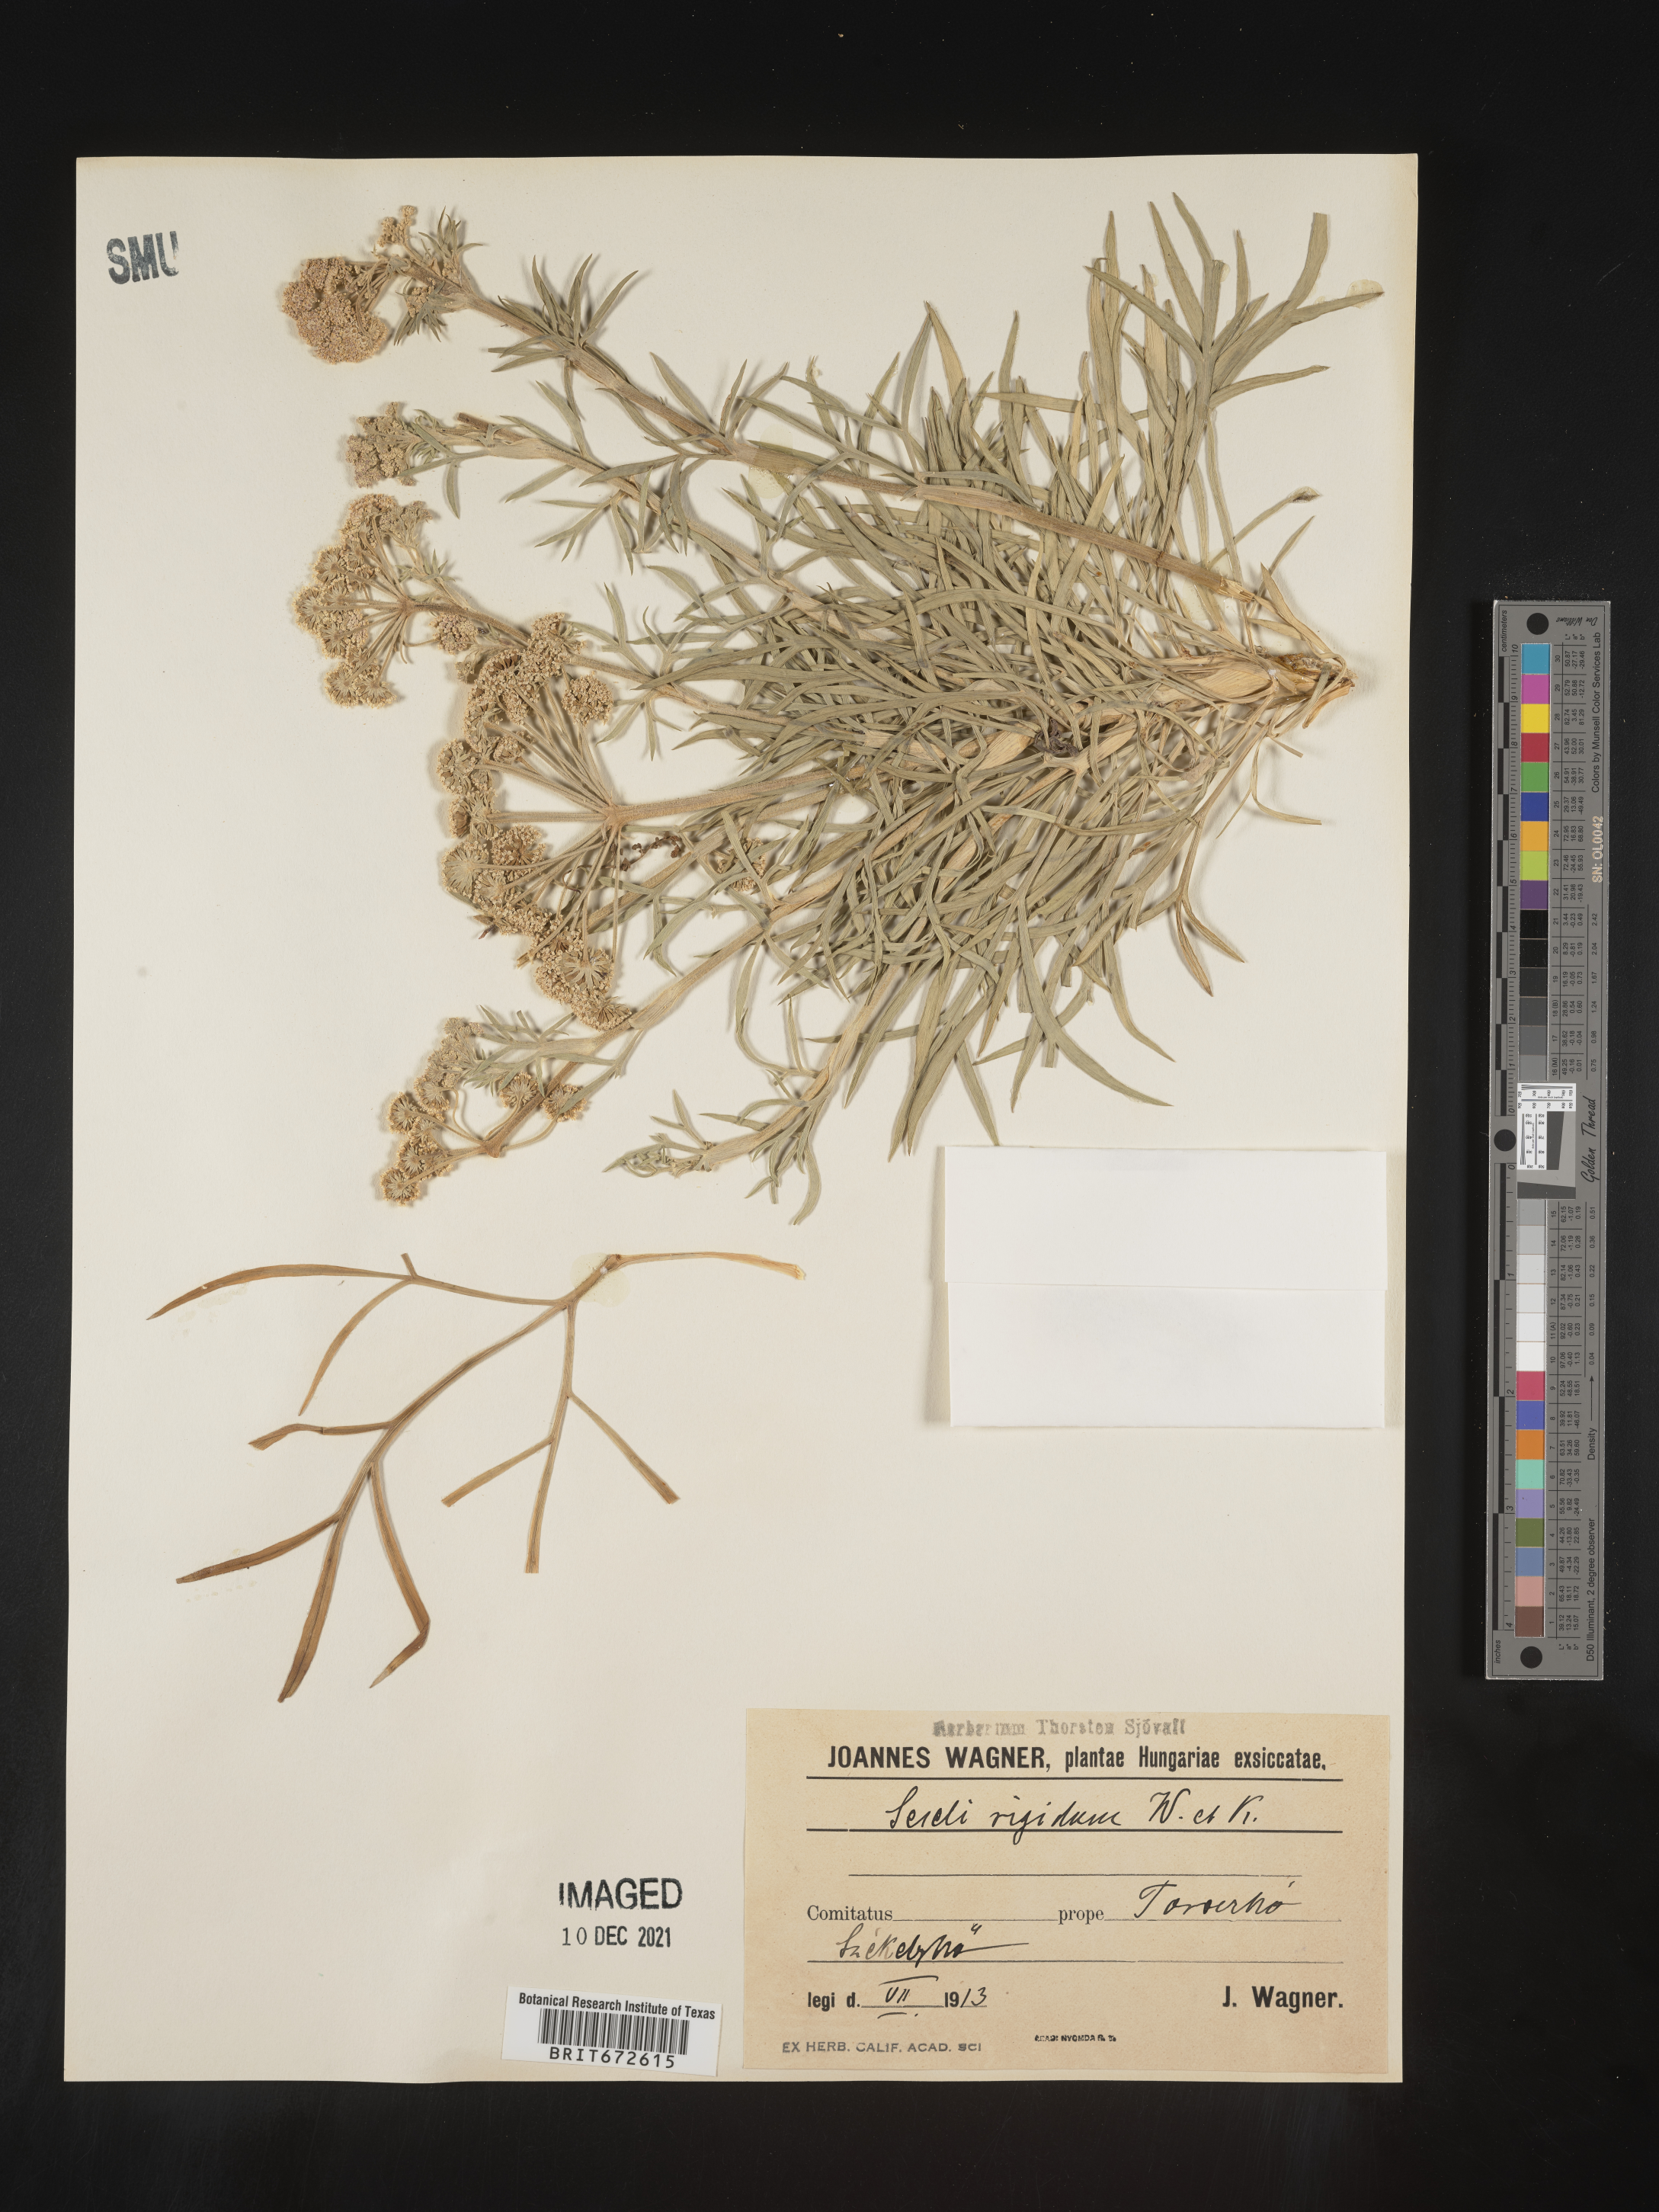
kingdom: Plantae
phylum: Tracheophyta
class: Magnoliopsida
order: Apiales
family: Apiaceae
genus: Seseli
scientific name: Seseli
